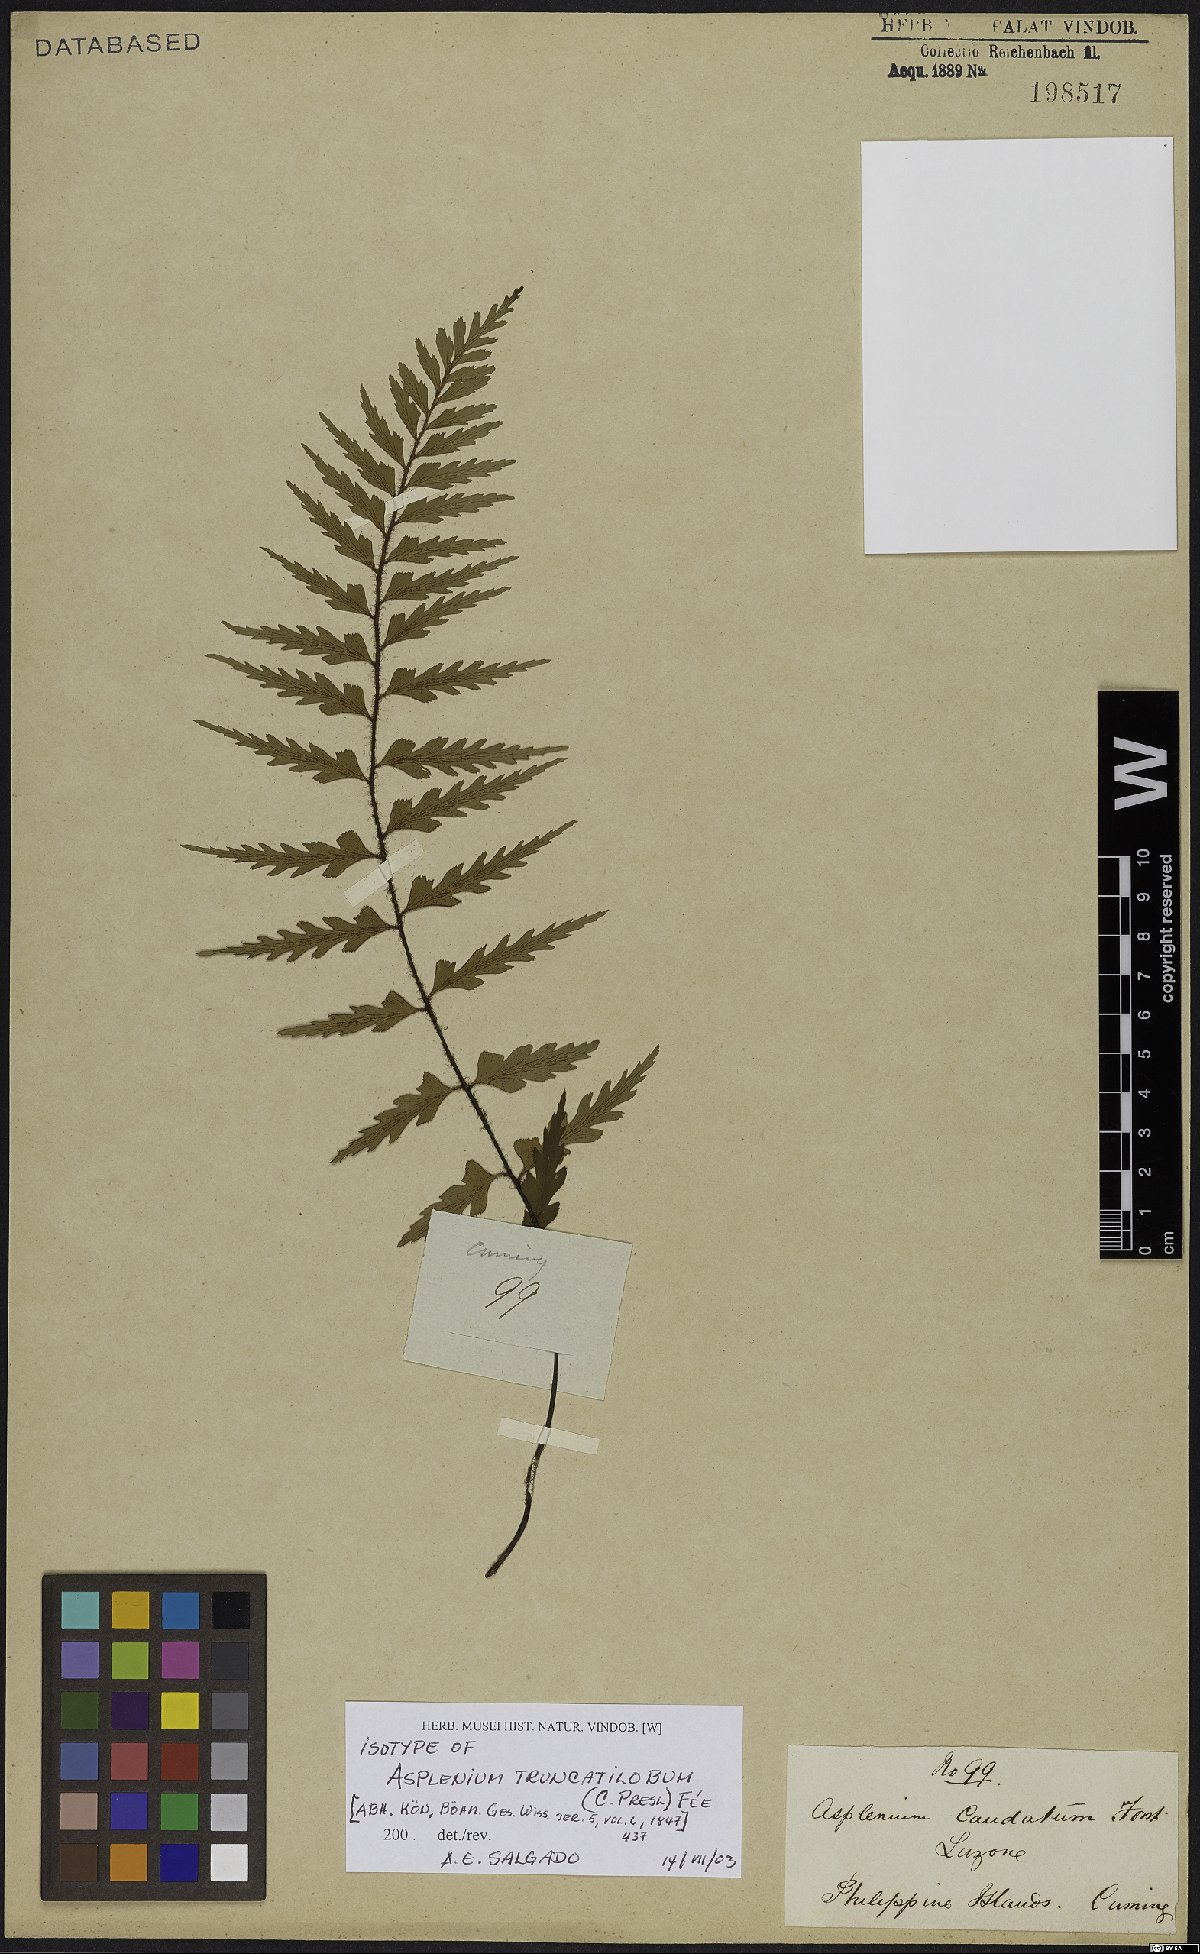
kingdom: Plantae
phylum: Tracheophyta
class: Polypodiopsida
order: Polypodiales
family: Aspleniaceae
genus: Asplenium
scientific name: Asplenium truncatilobum
